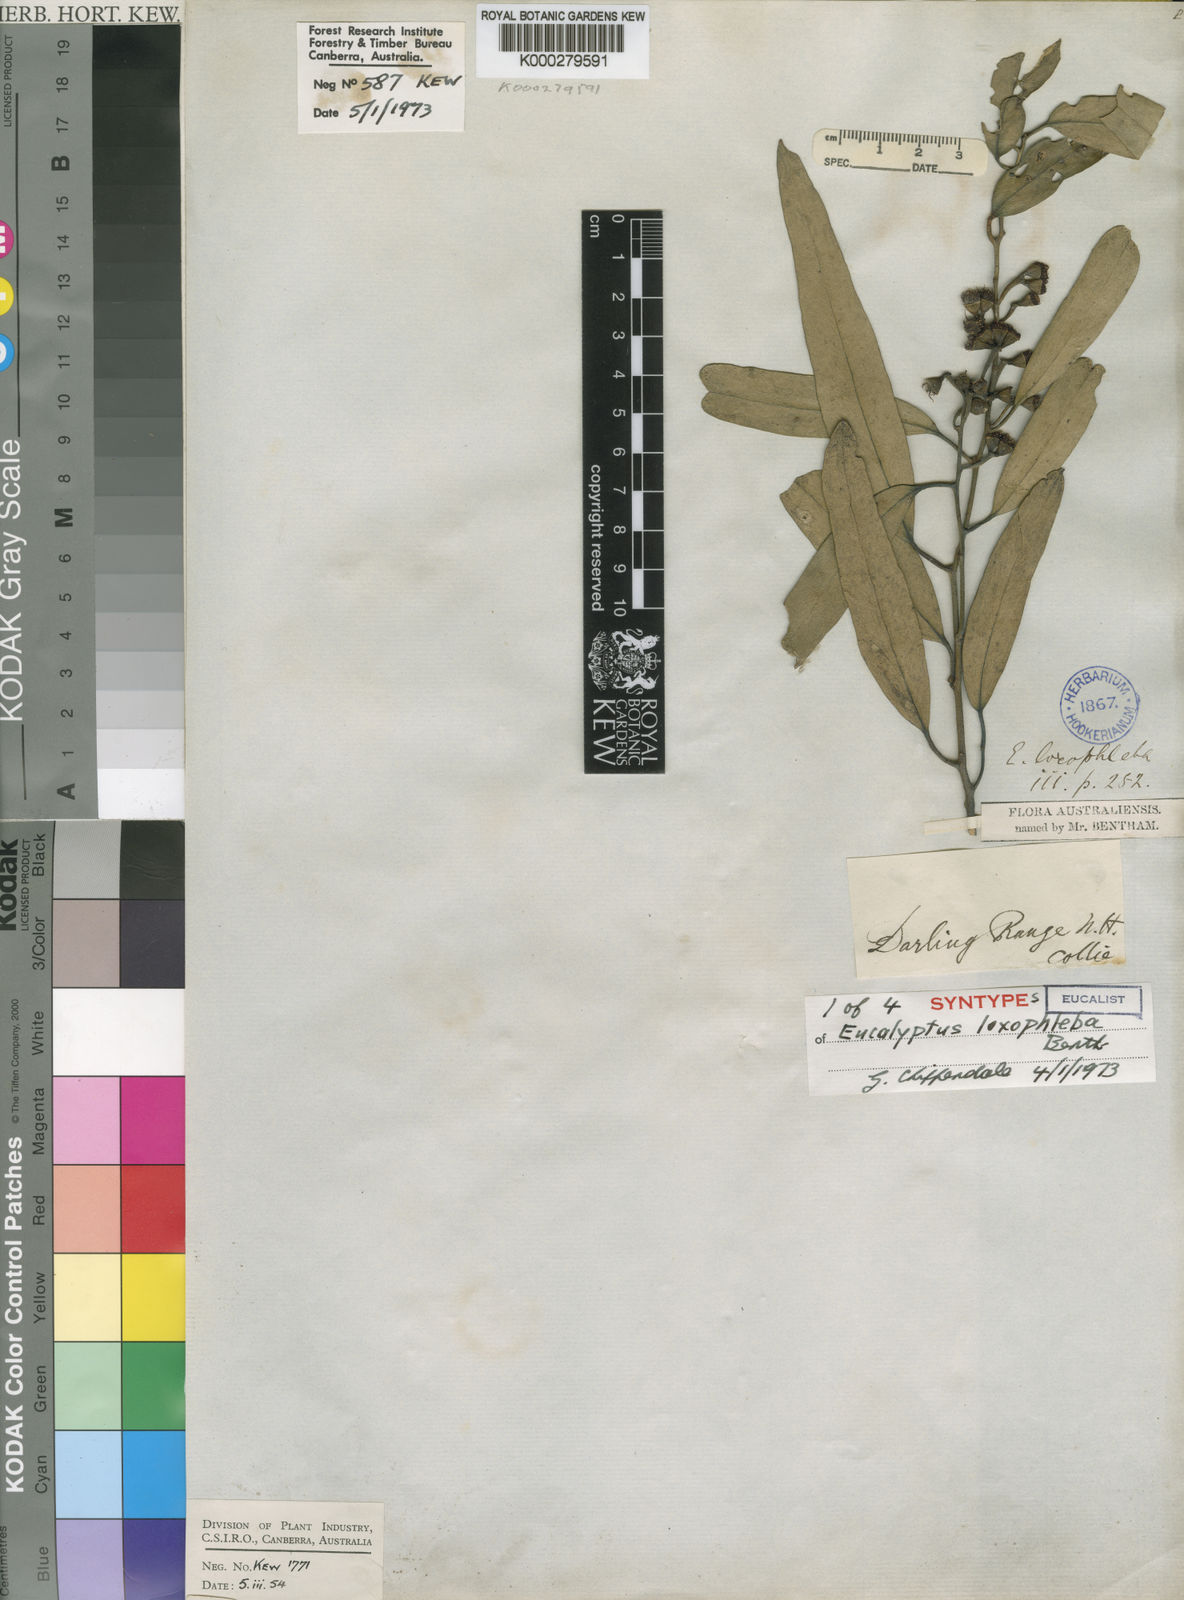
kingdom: Plantae
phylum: Tracheophyta
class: Magnoliopsida
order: Myrtales
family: Myrtaceae
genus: Eucalyptus
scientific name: Eucalyptus loxophleba
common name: York gum
